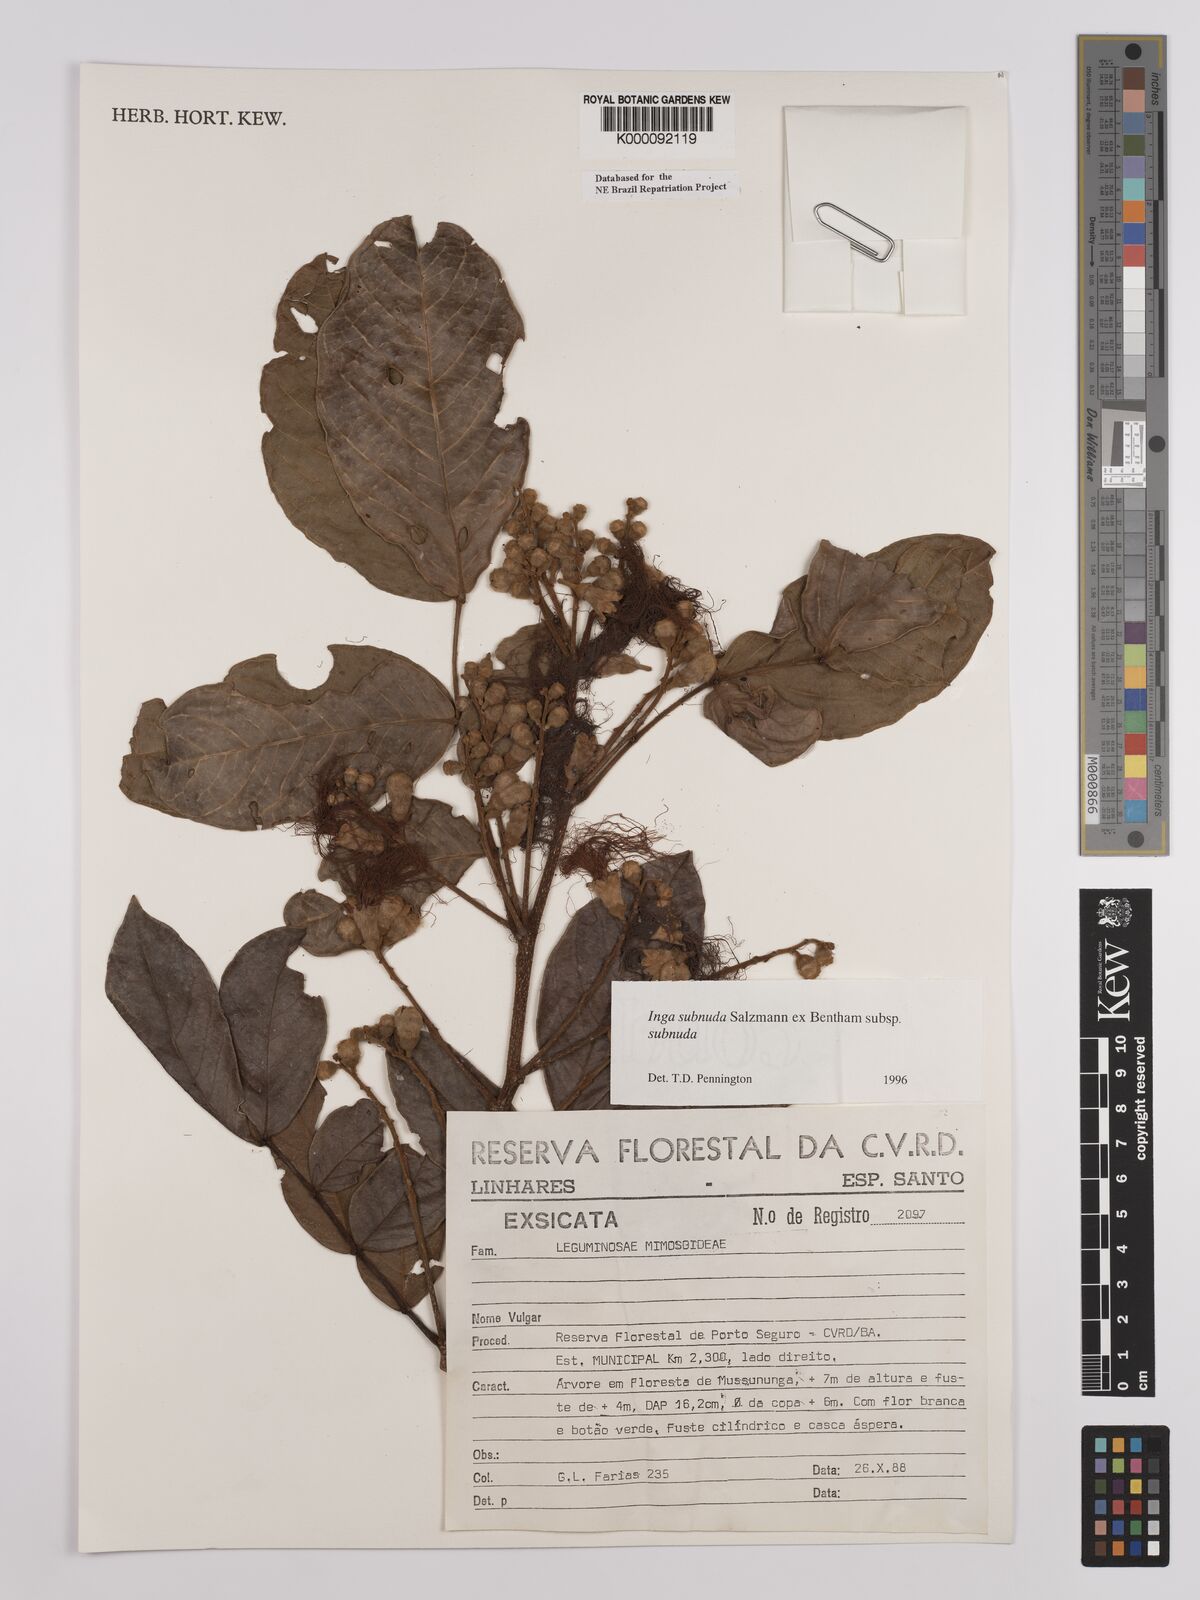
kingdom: Plantae
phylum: Tracheophyta
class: Magnoliopsida
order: Fabales
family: Fabaceae
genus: Inga
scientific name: Inga subnuda
